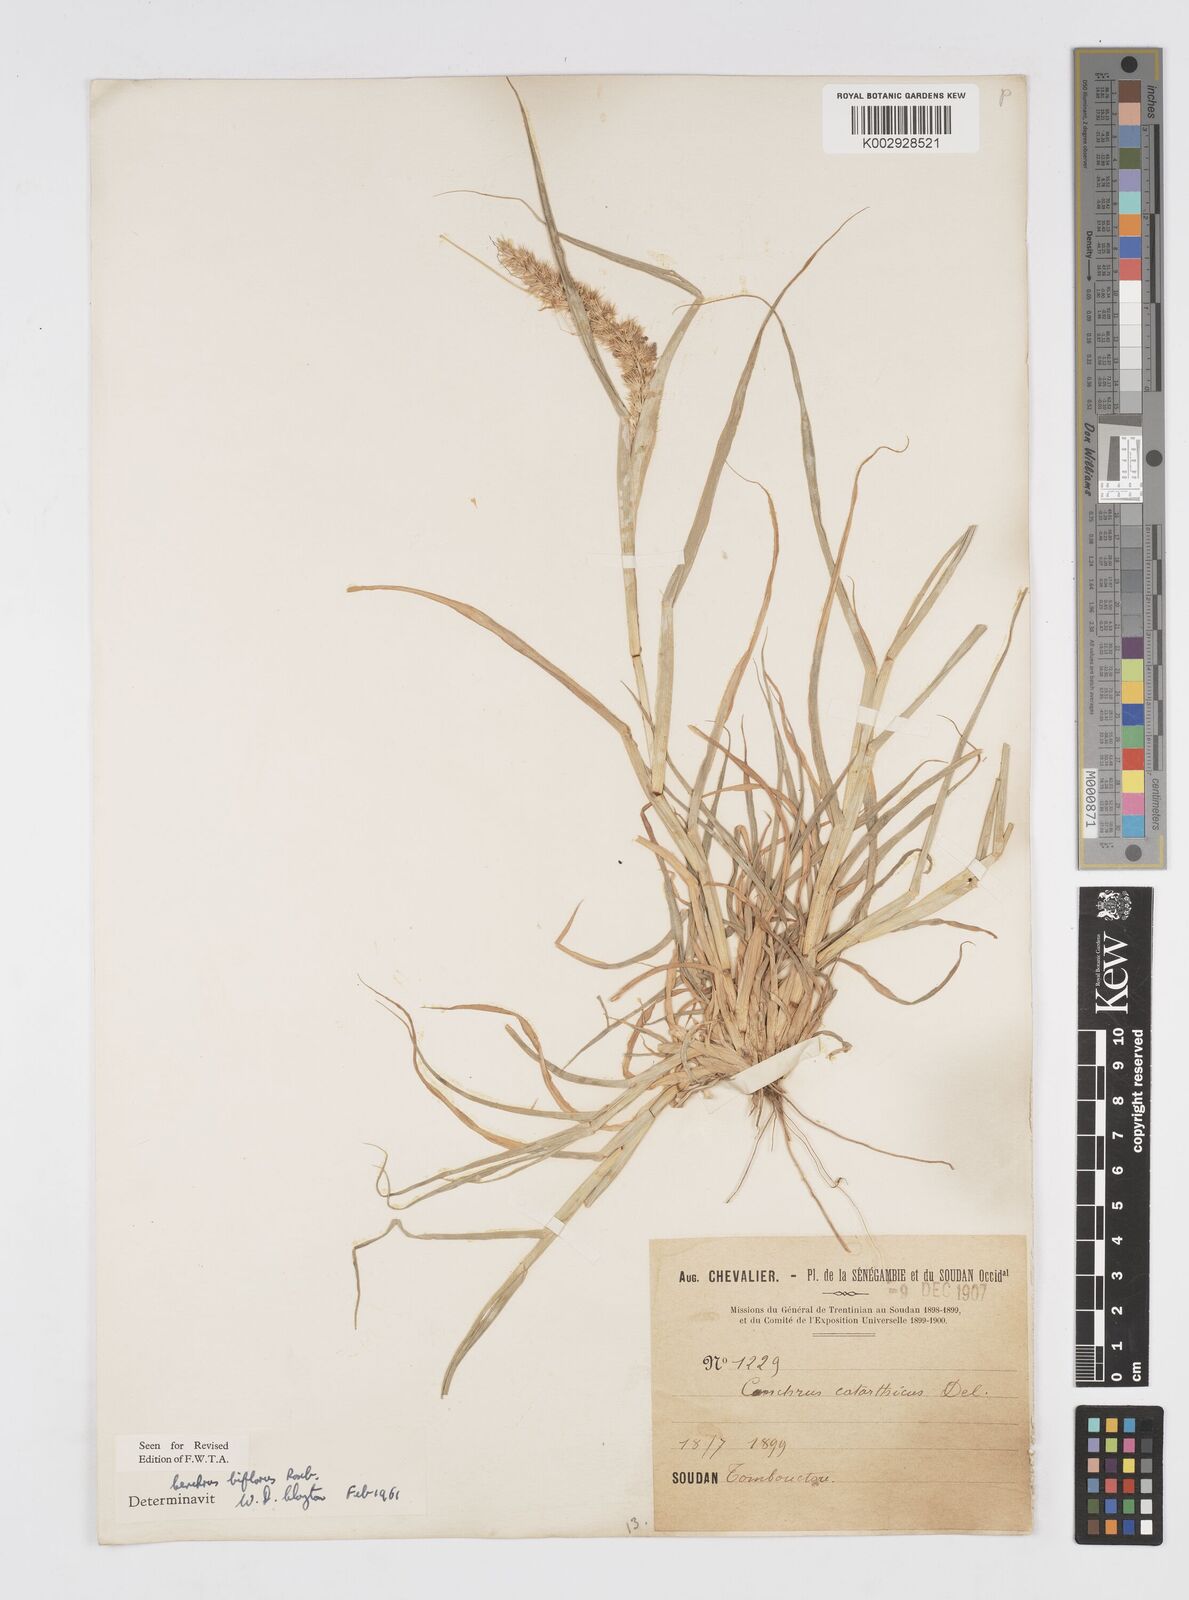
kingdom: Plantae
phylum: Tracheophyta
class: Liliopsida
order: Poales
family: Poaceae
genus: Cenchrus
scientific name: Cenchrus biflorus
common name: Indian sandbur
